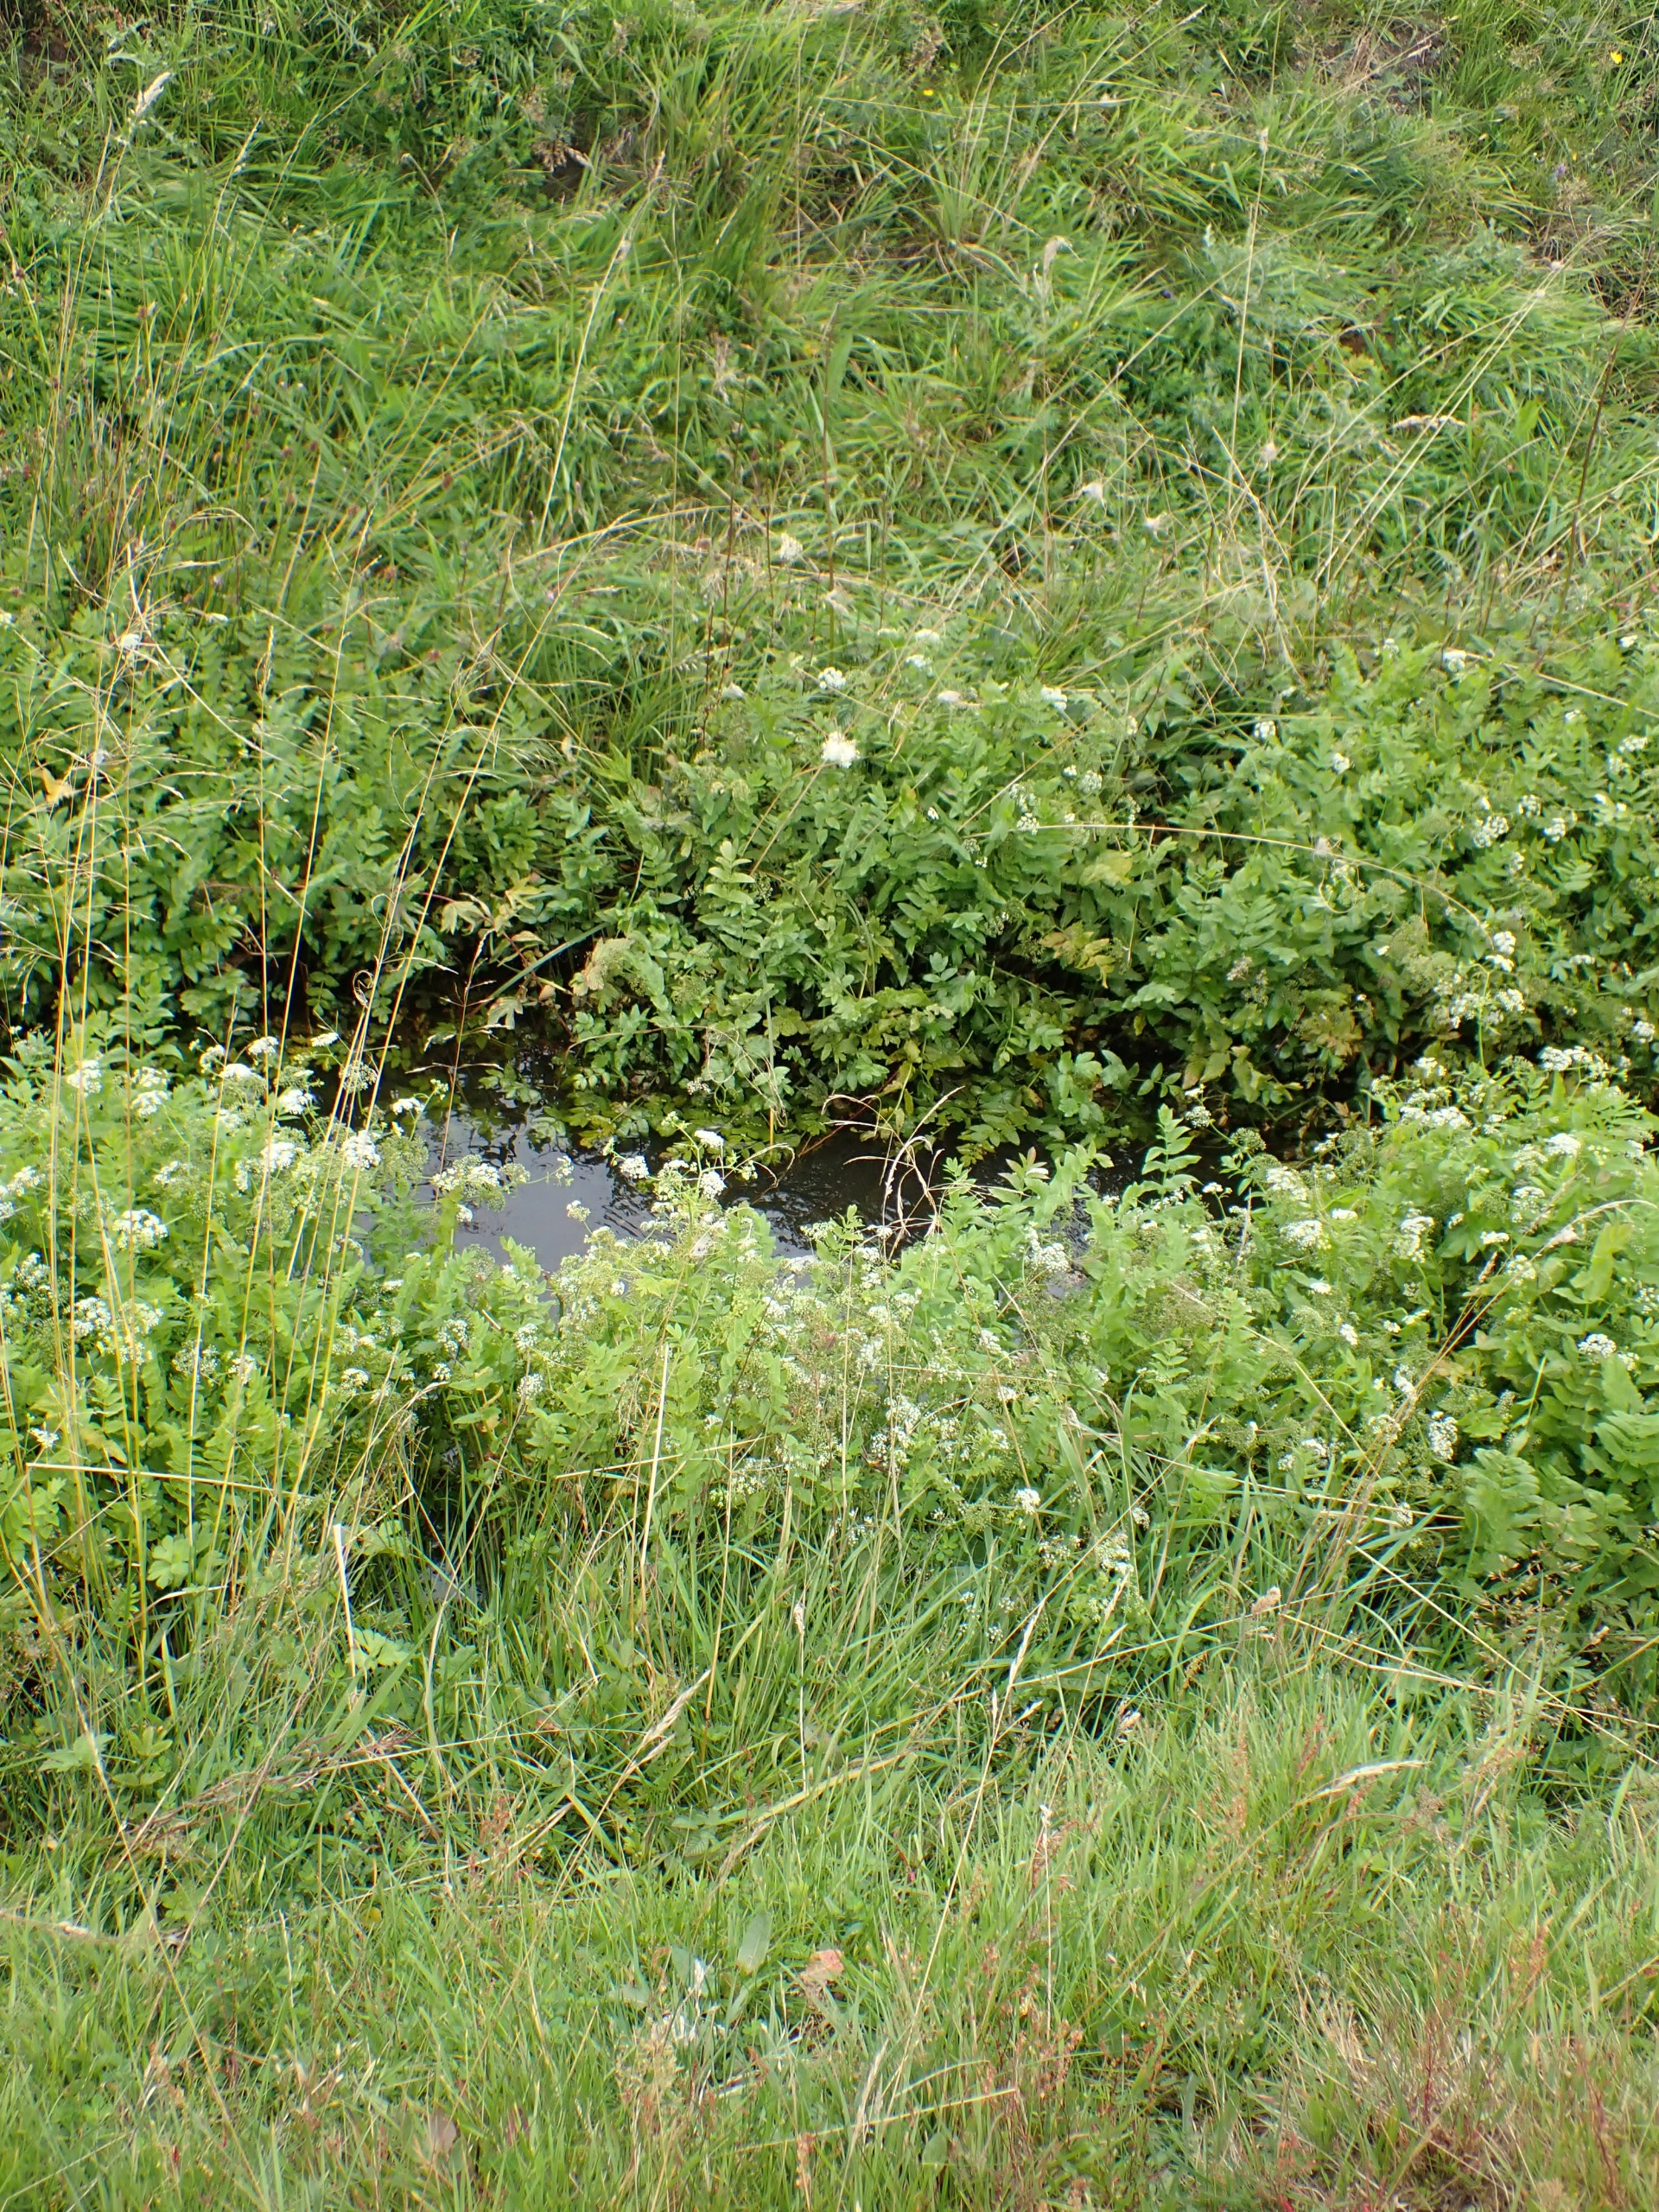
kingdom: Plantae
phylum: Tracheophyta
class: Magnoliopsida
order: Apiales
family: Apiaceae
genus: Berula
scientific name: Berula erecta
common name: Sideskærm
